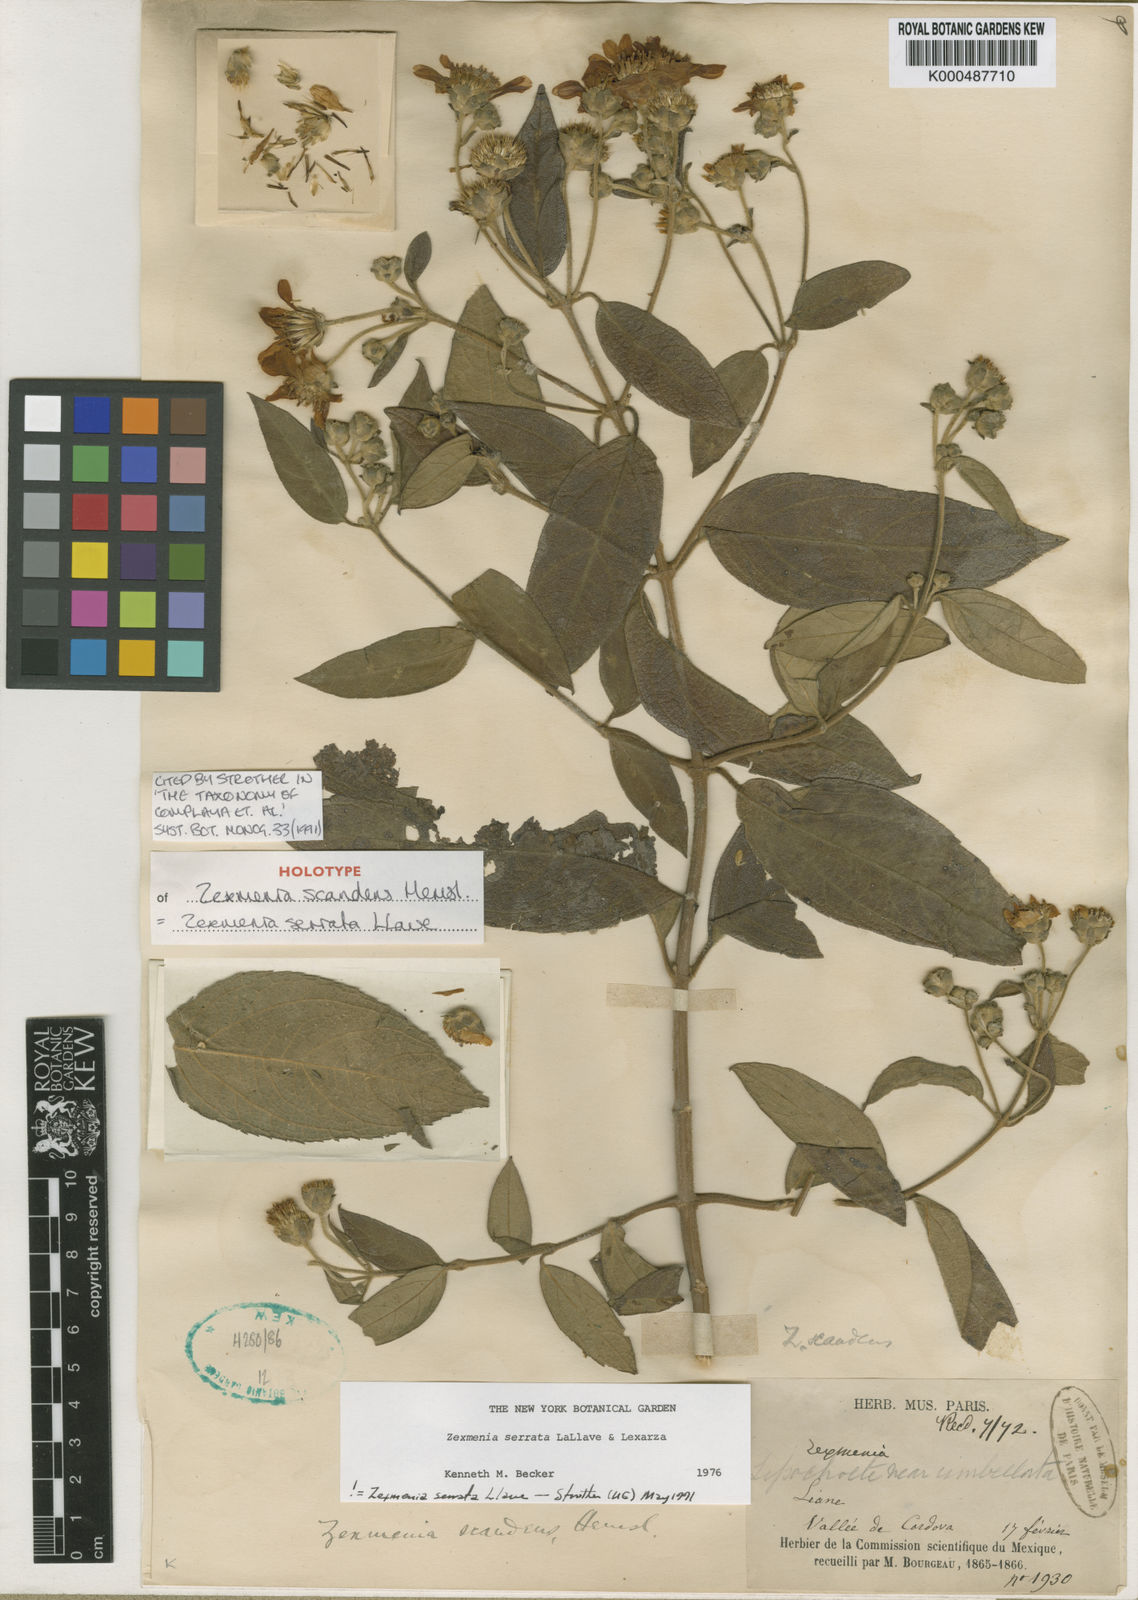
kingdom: Plantae
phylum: Tracheophyta
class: Magnoliopsida
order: Asterales
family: Asteraceae
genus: Zexmenia
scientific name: Zexmenia serrata
